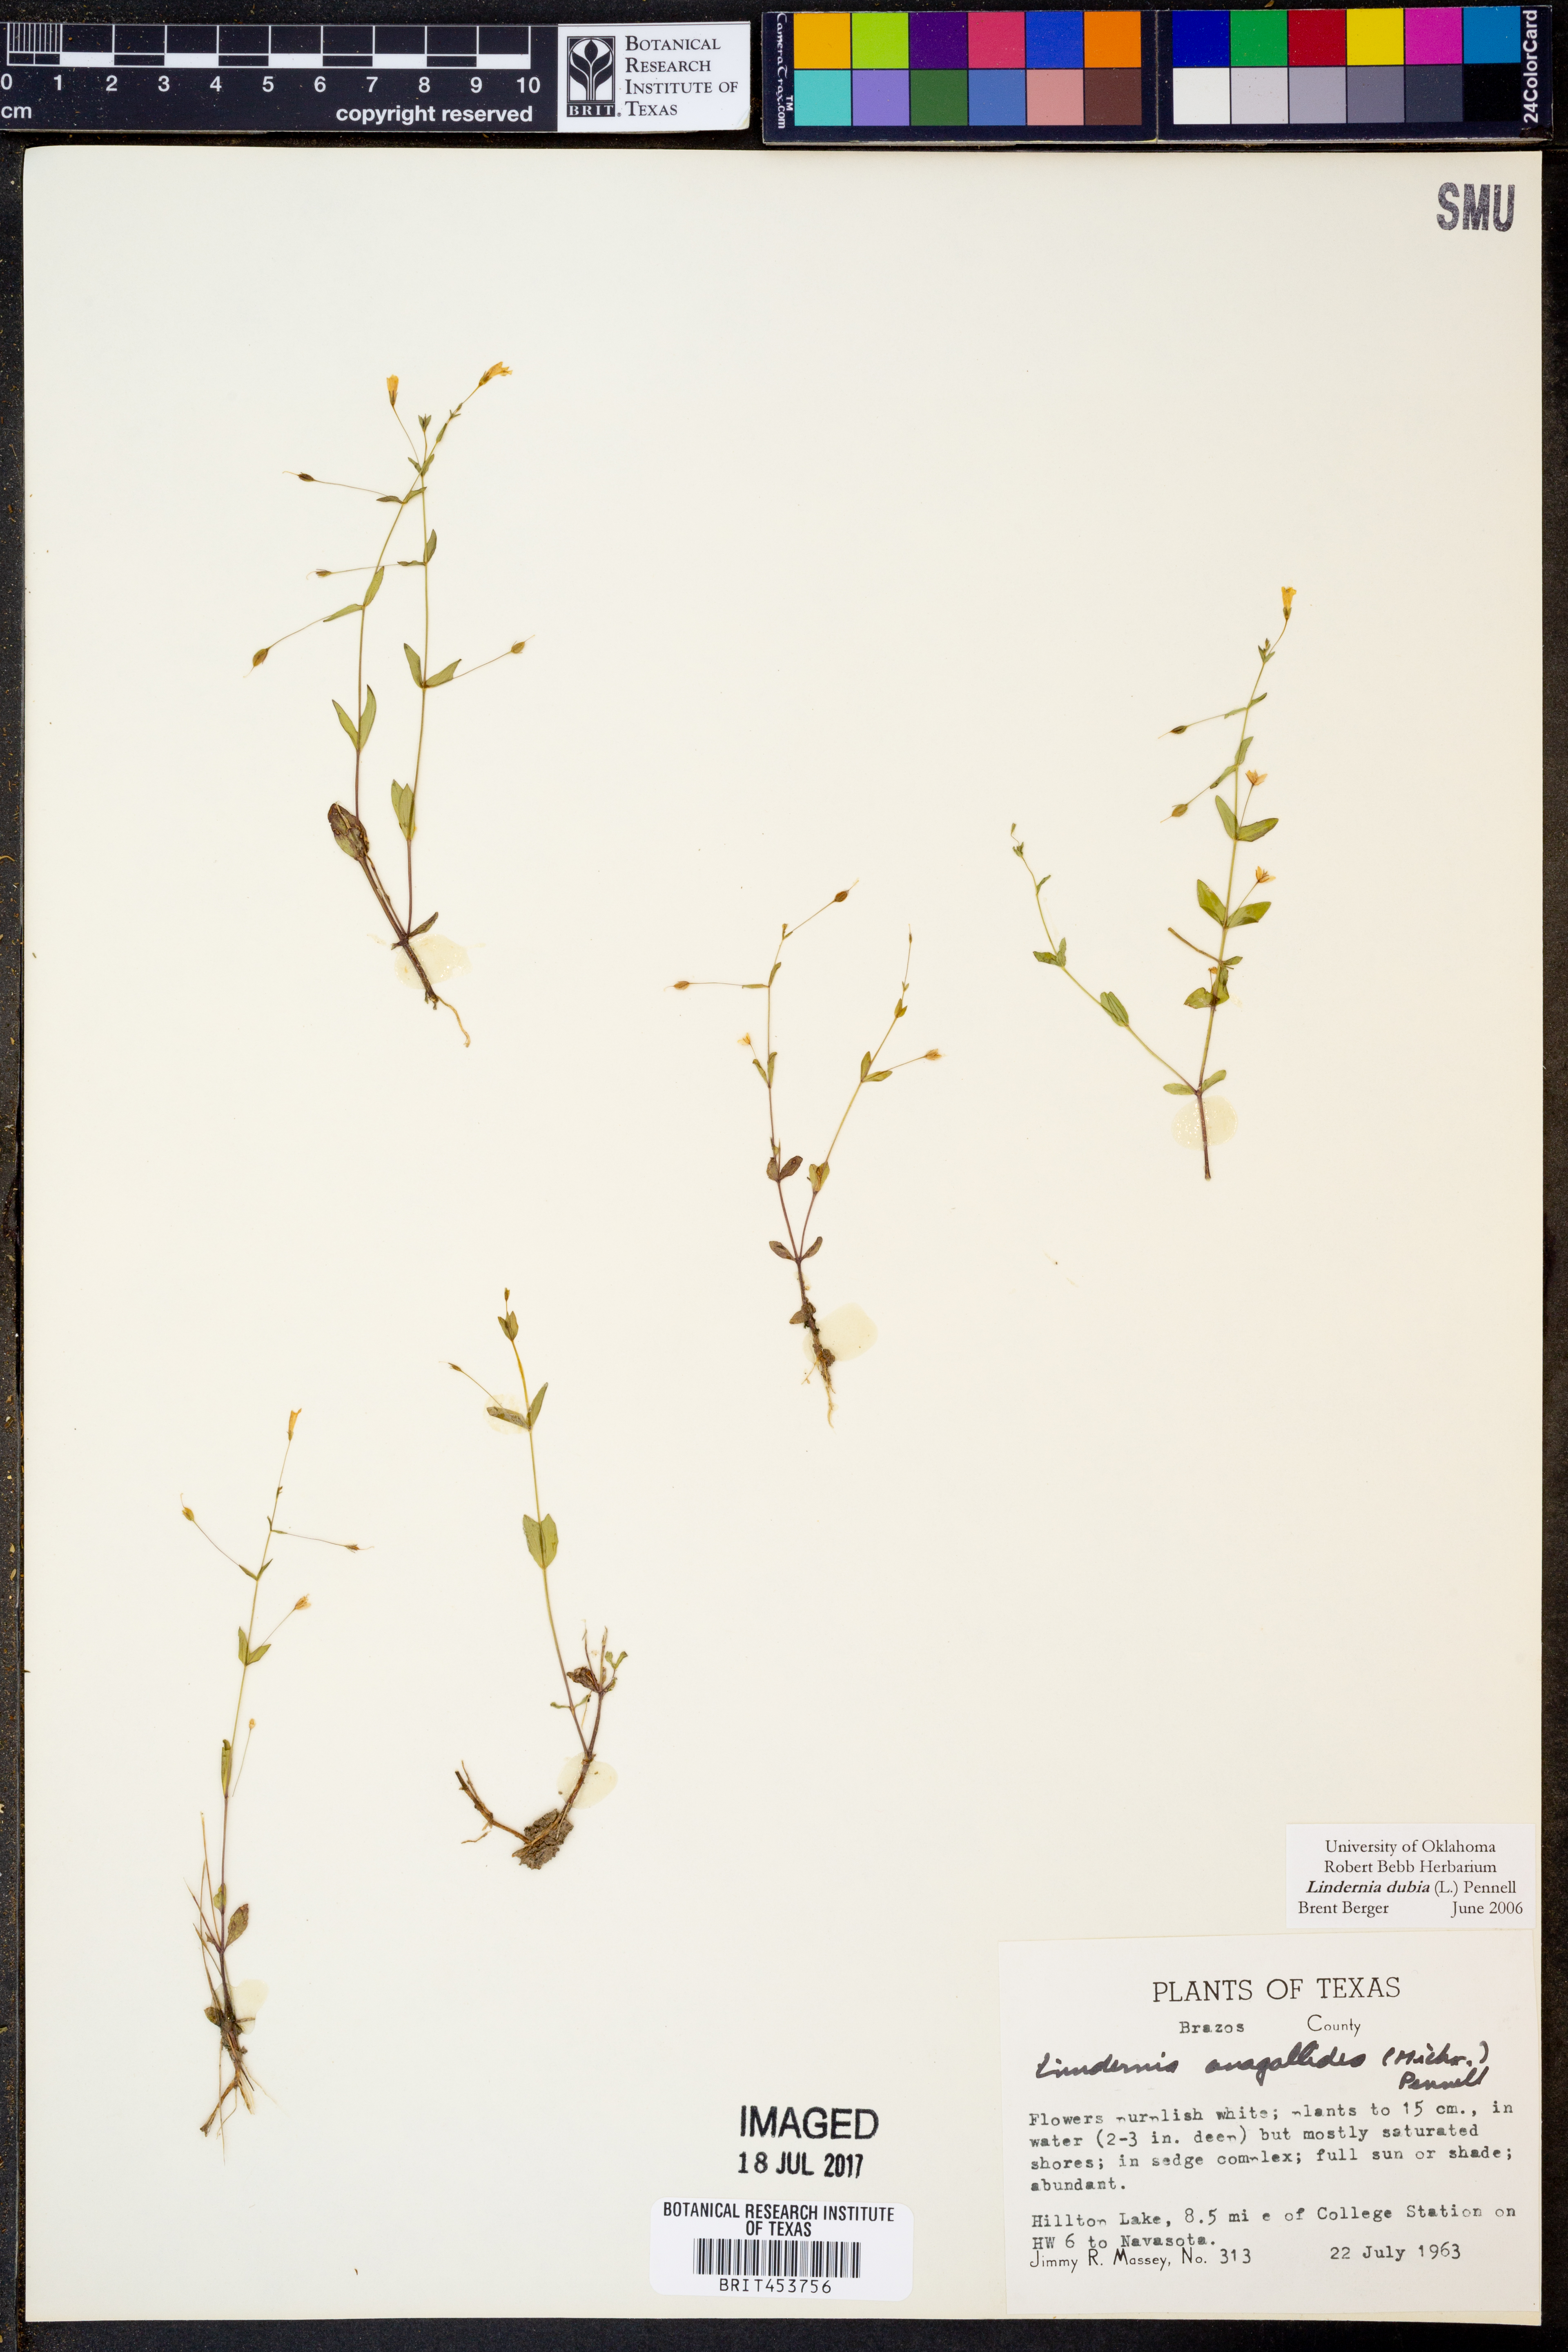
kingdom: Plantae
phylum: Tracheophyta
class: Magnoliopsida
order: Lamiales
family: Linderniaceae
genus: Lindernia
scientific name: Lindernia dubia
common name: Annual false pimpernel
